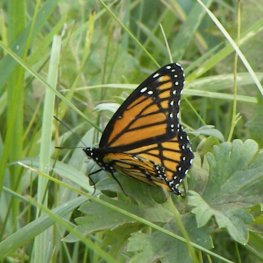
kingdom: Animalia
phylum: Arthropoda
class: Insecta
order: Lepidoptera
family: Nymphalidae
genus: Limenitis
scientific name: Limenitis archippus
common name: Viceroy
